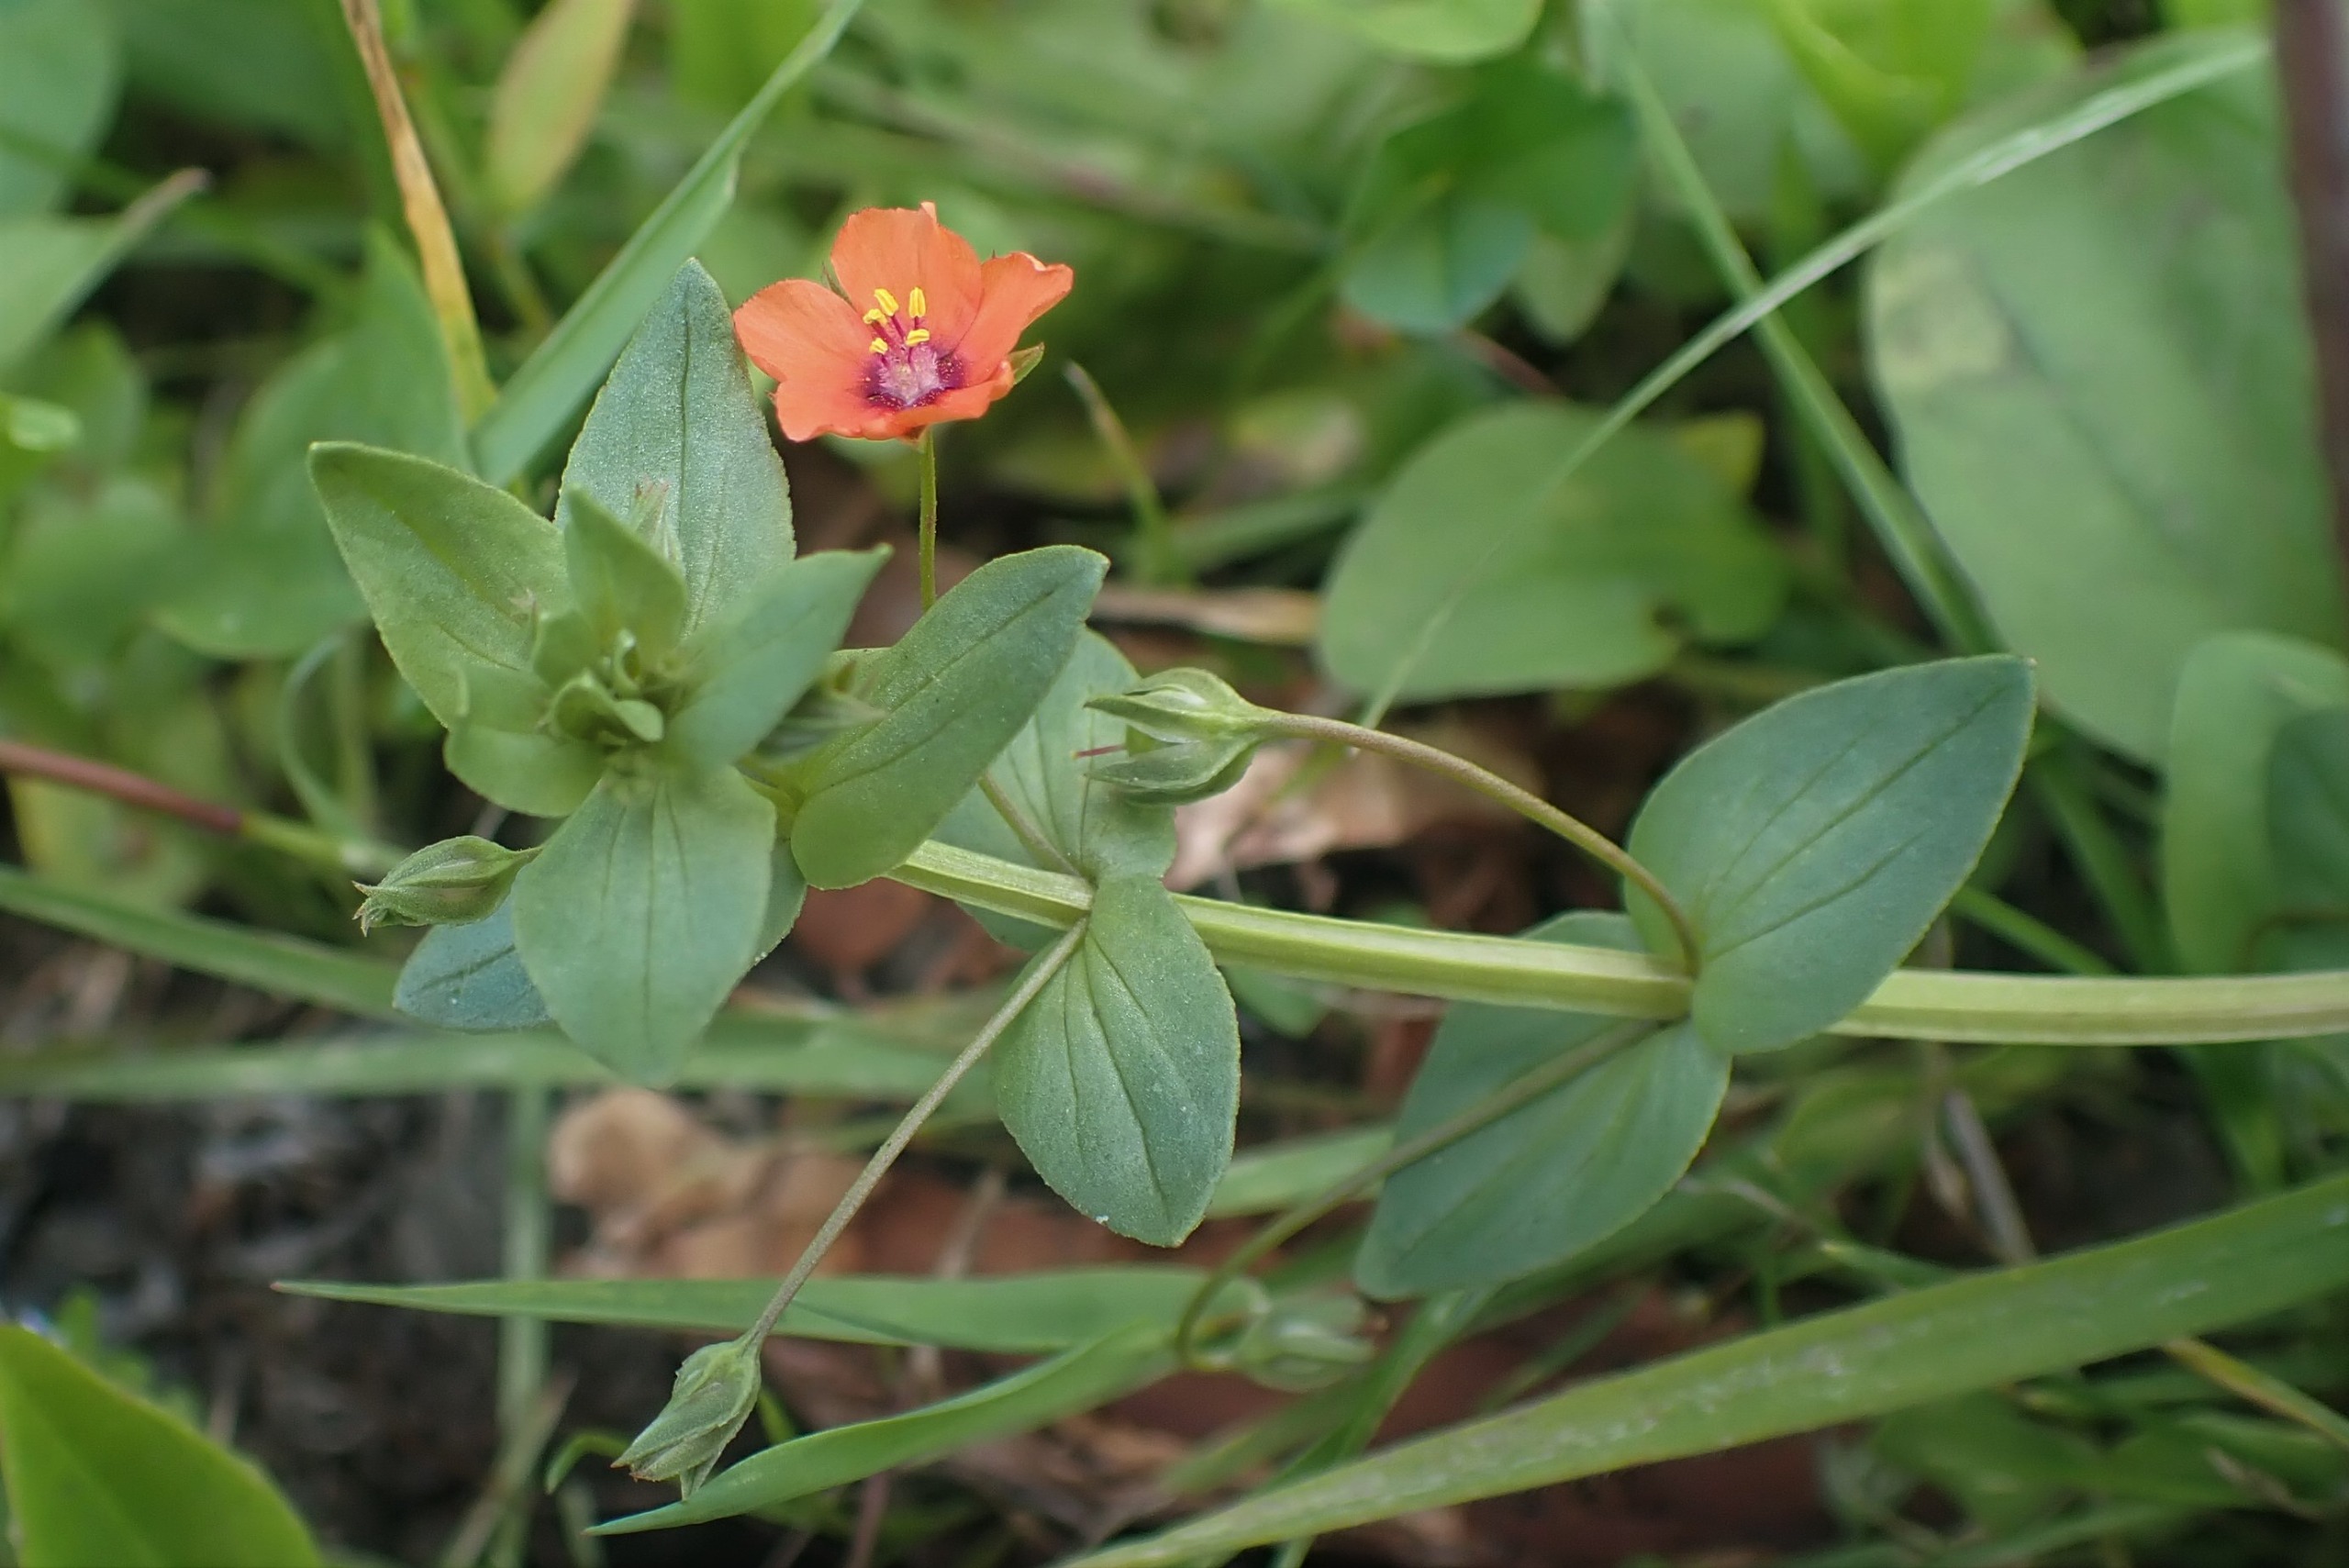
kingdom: Plantae
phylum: Tracheophyta
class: Magnoliopsida
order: Ericales
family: Primulaceae
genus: Lysimachia
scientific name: Lysimachia arvensis
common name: Rød arve
